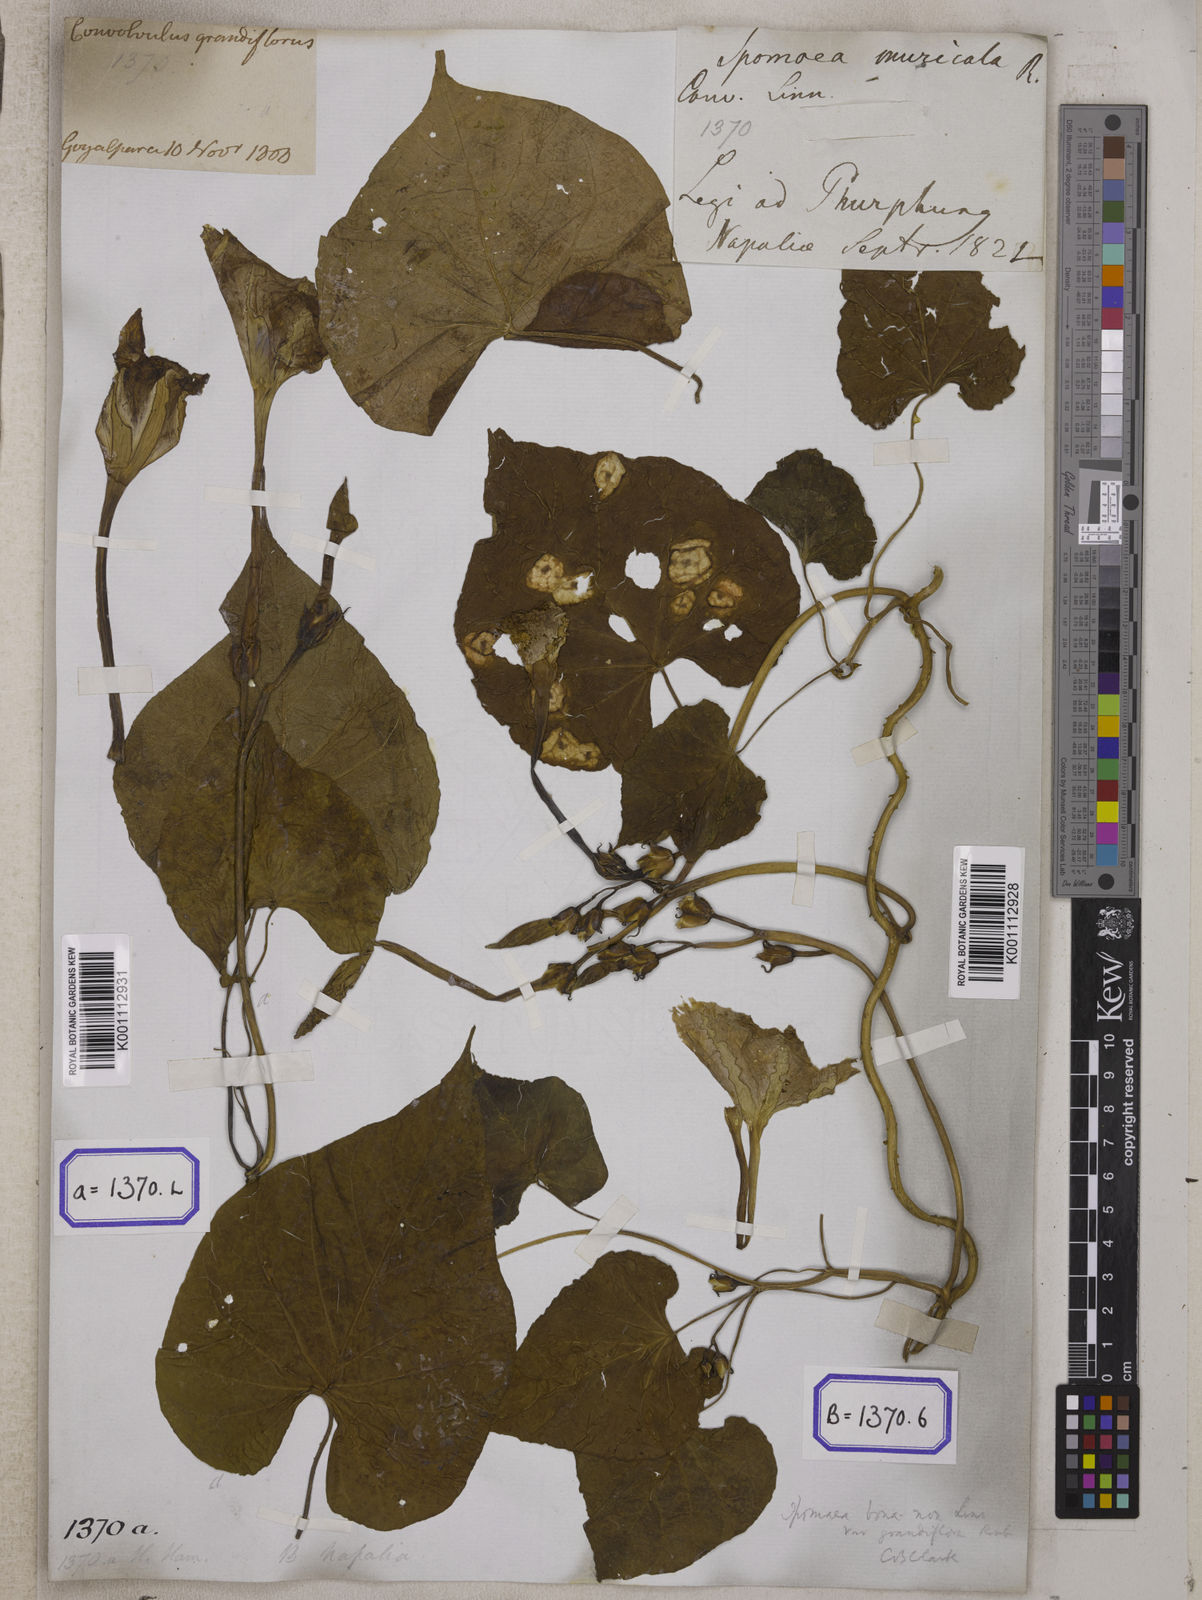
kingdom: Plantae
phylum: Tracheophyta
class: Magnoliopsida
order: Solanales
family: Convolvulaceae
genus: Convolvulus
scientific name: Convolvulus
